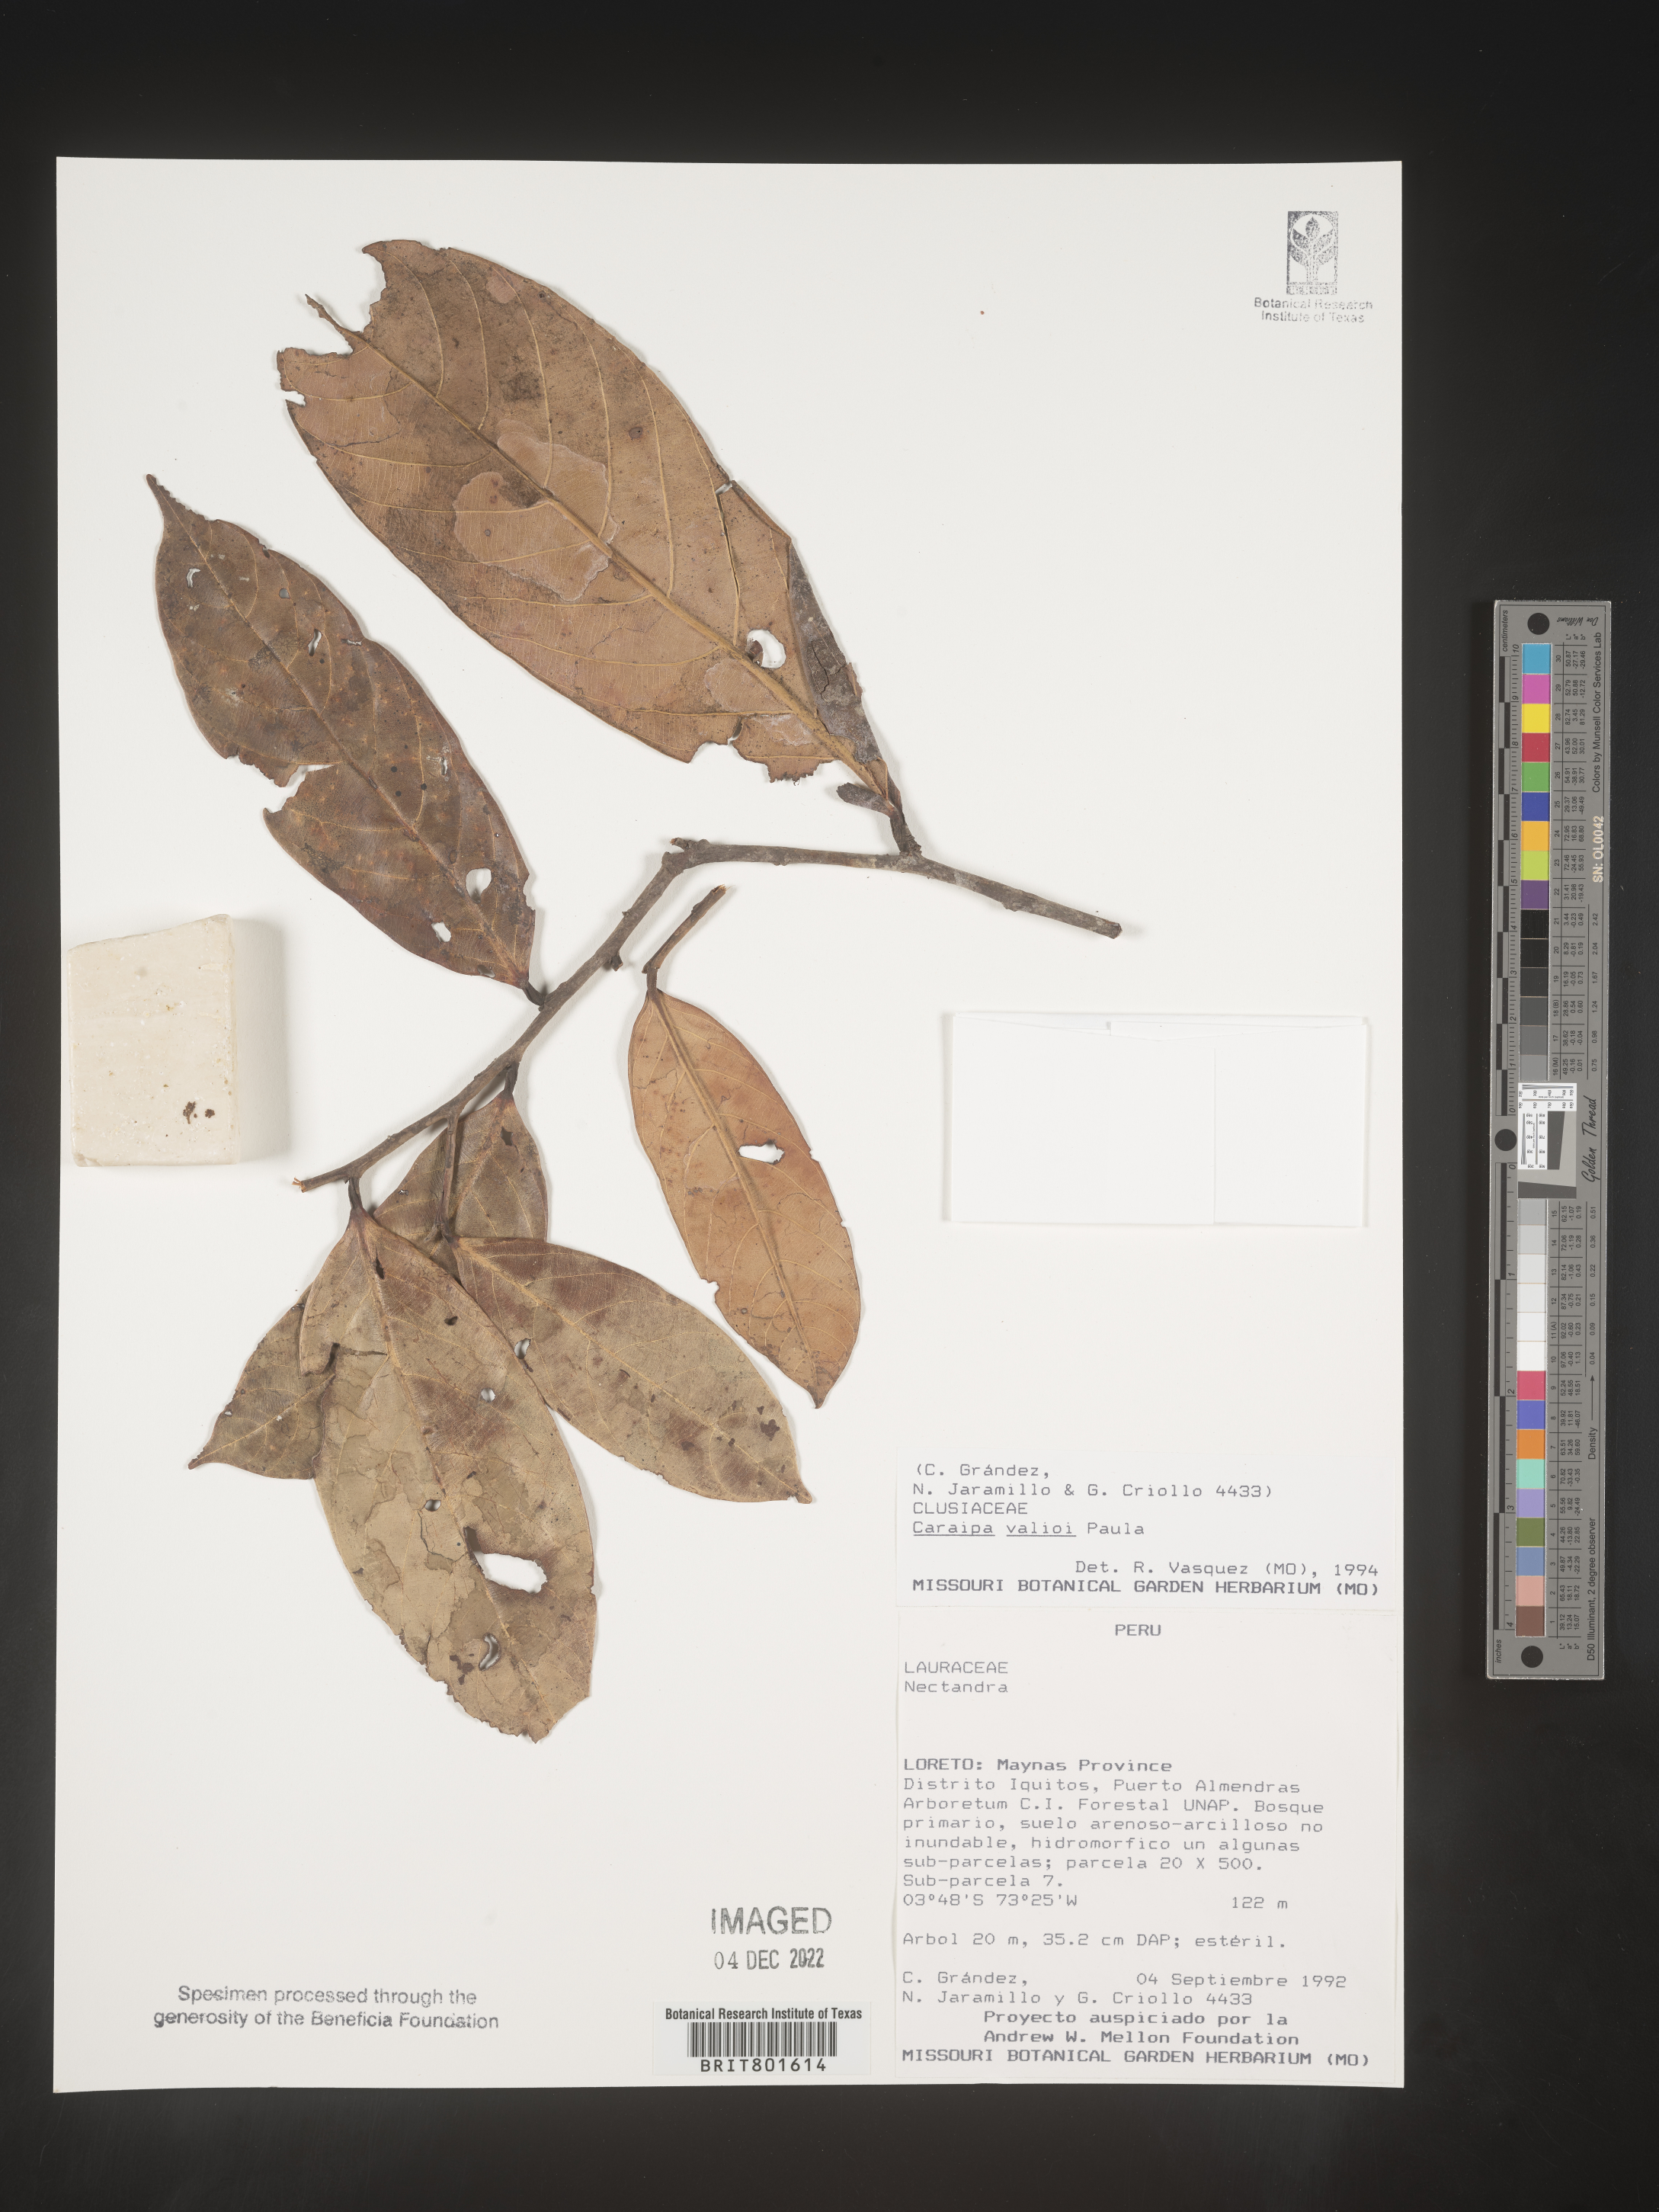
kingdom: Plantae
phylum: Tracheophyta
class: Magnoliopsida
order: Malpighiales
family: Calophyllaceae
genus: Caraipa
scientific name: Caraipa valioi
